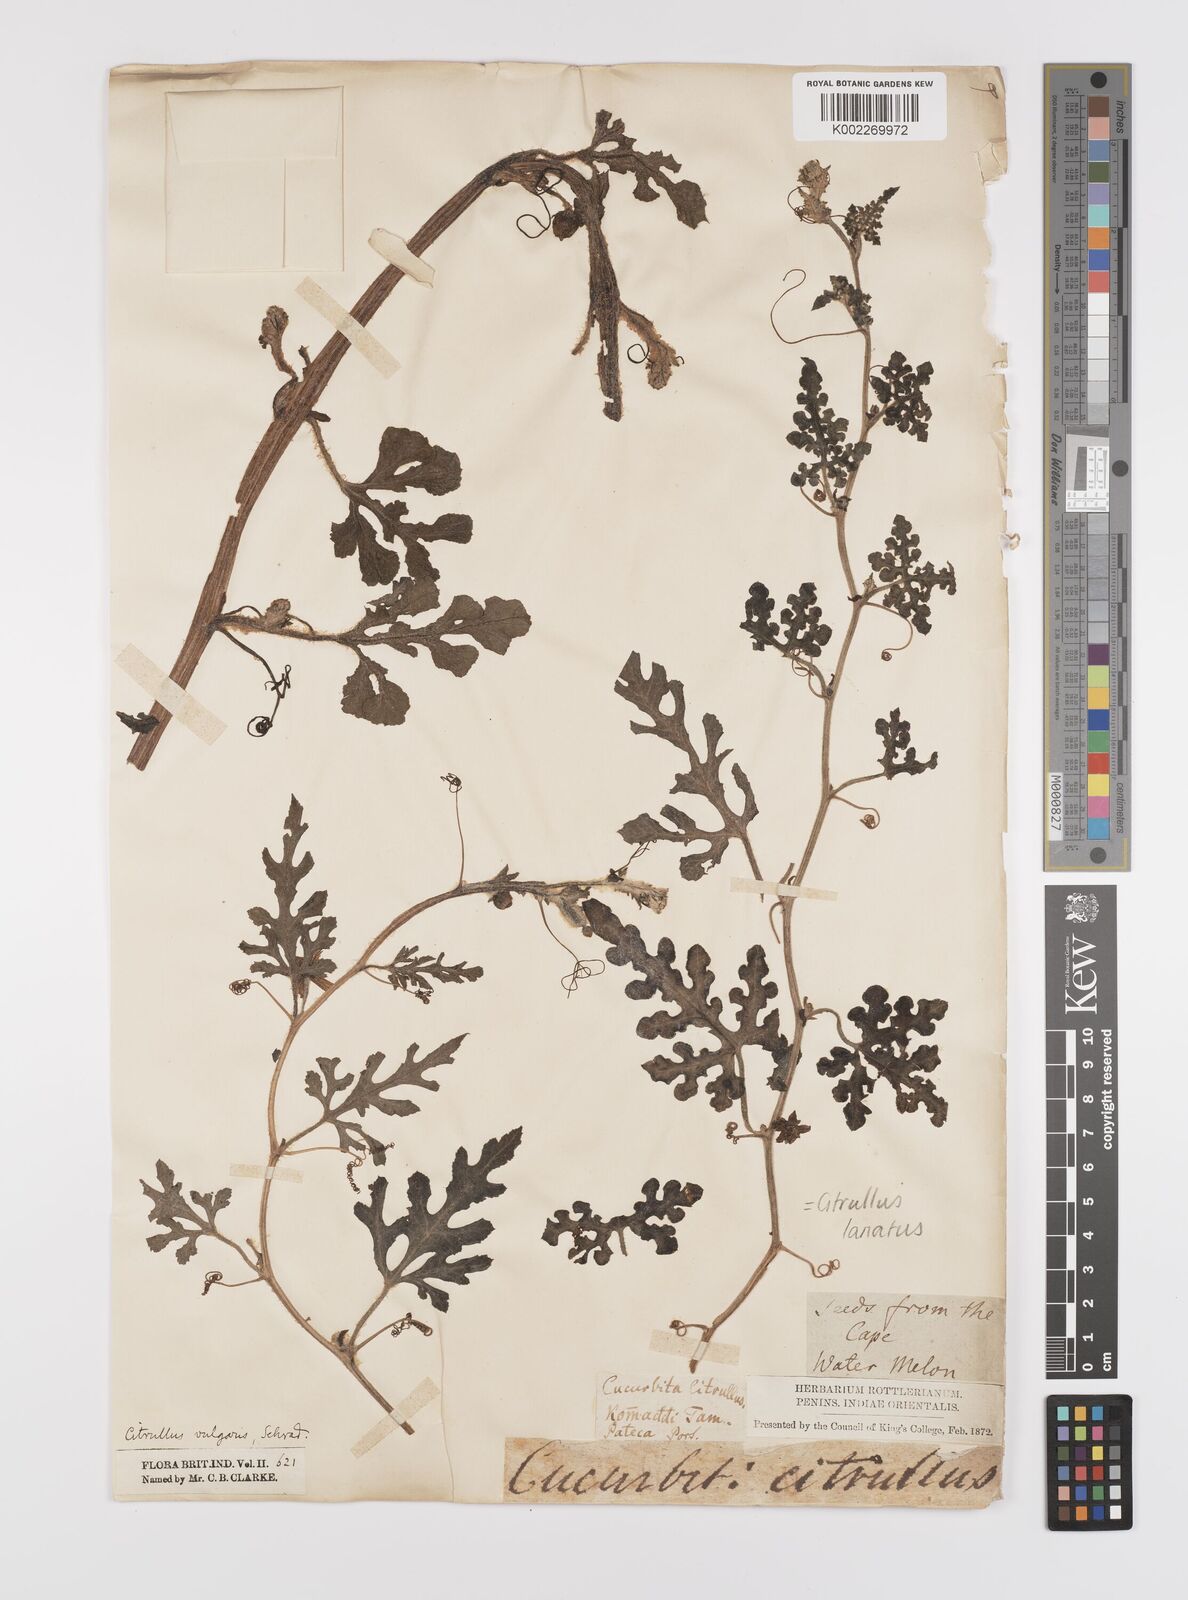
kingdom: Plantae
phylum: Tracheophyta
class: Magnoliopsida
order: Cucurbitales
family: Cucurbitaceae
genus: Citrullus
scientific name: Citrullus lanatus
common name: Watermelon
